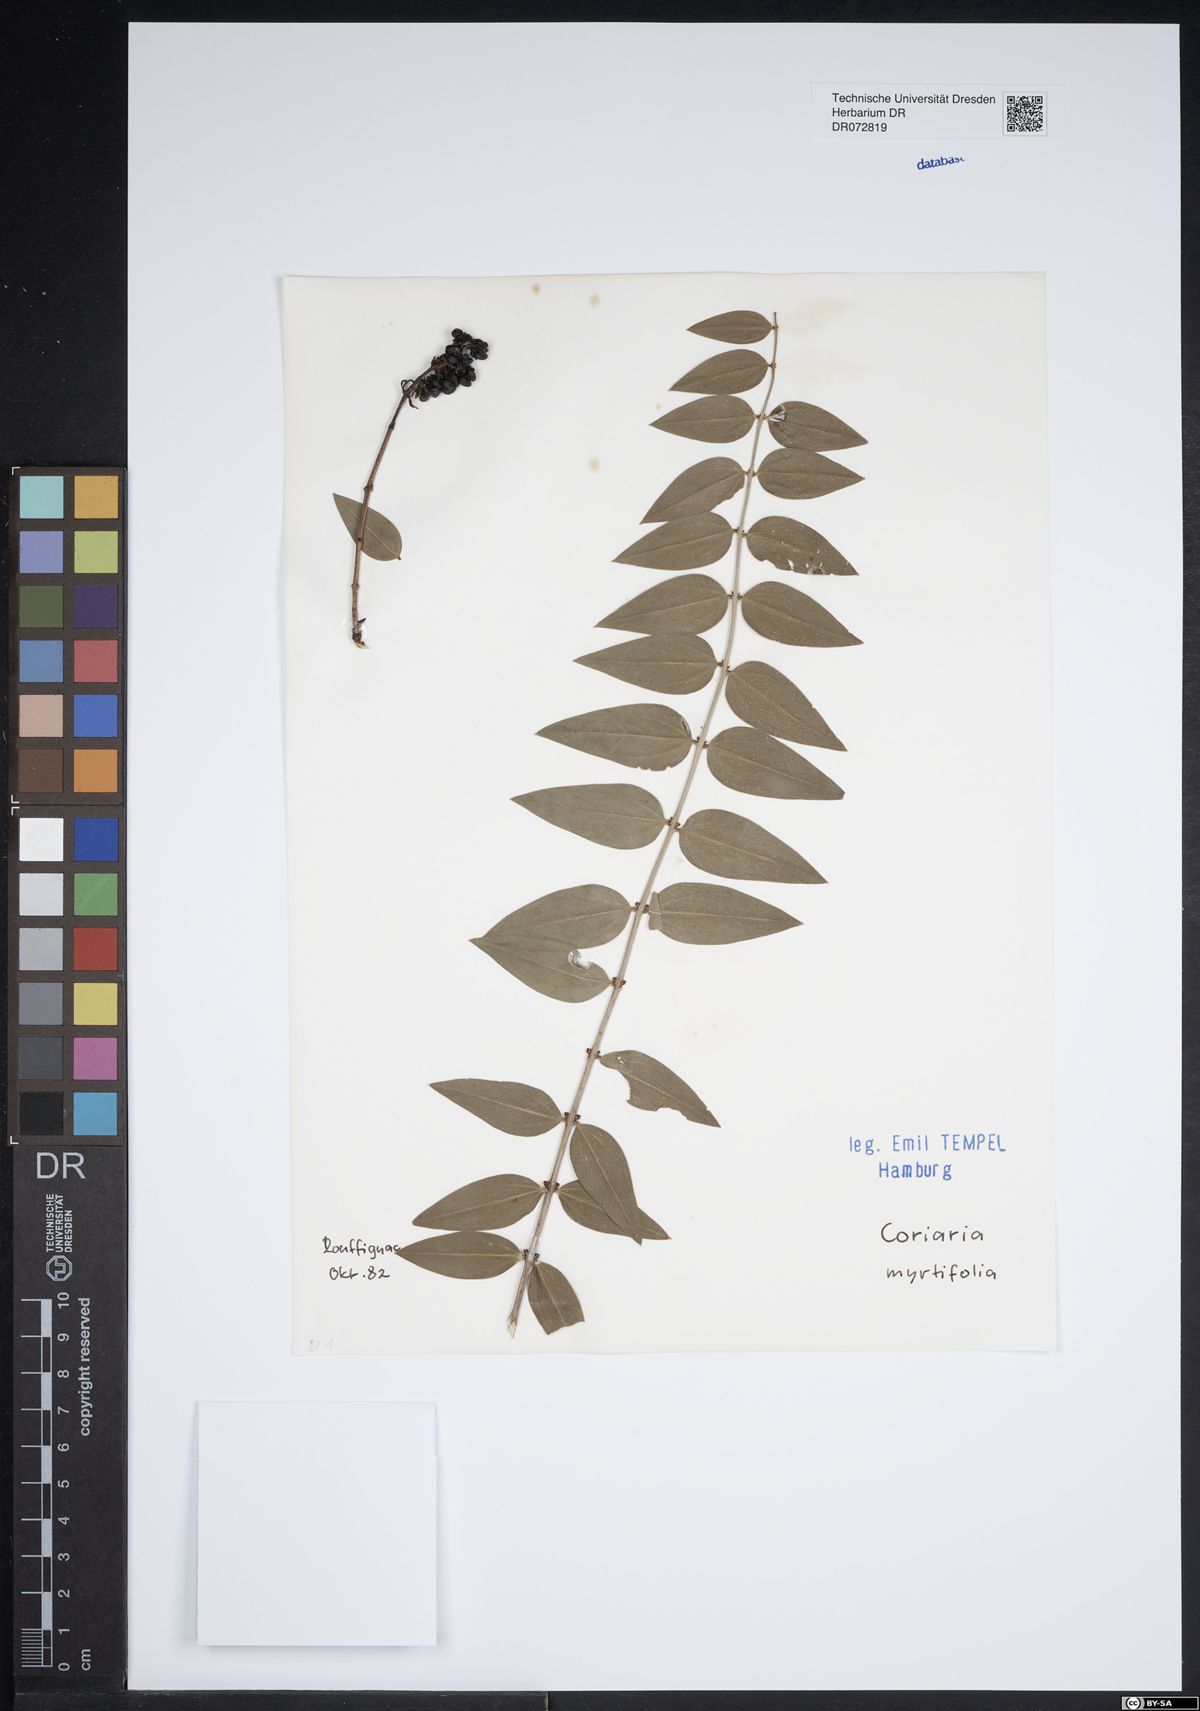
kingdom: Plantae
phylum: Tracheophyta
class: Magnoliopsida
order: Cucurbitales
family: Coriariaceae
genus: Coriaria
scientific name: Coriaria myrtifolia
